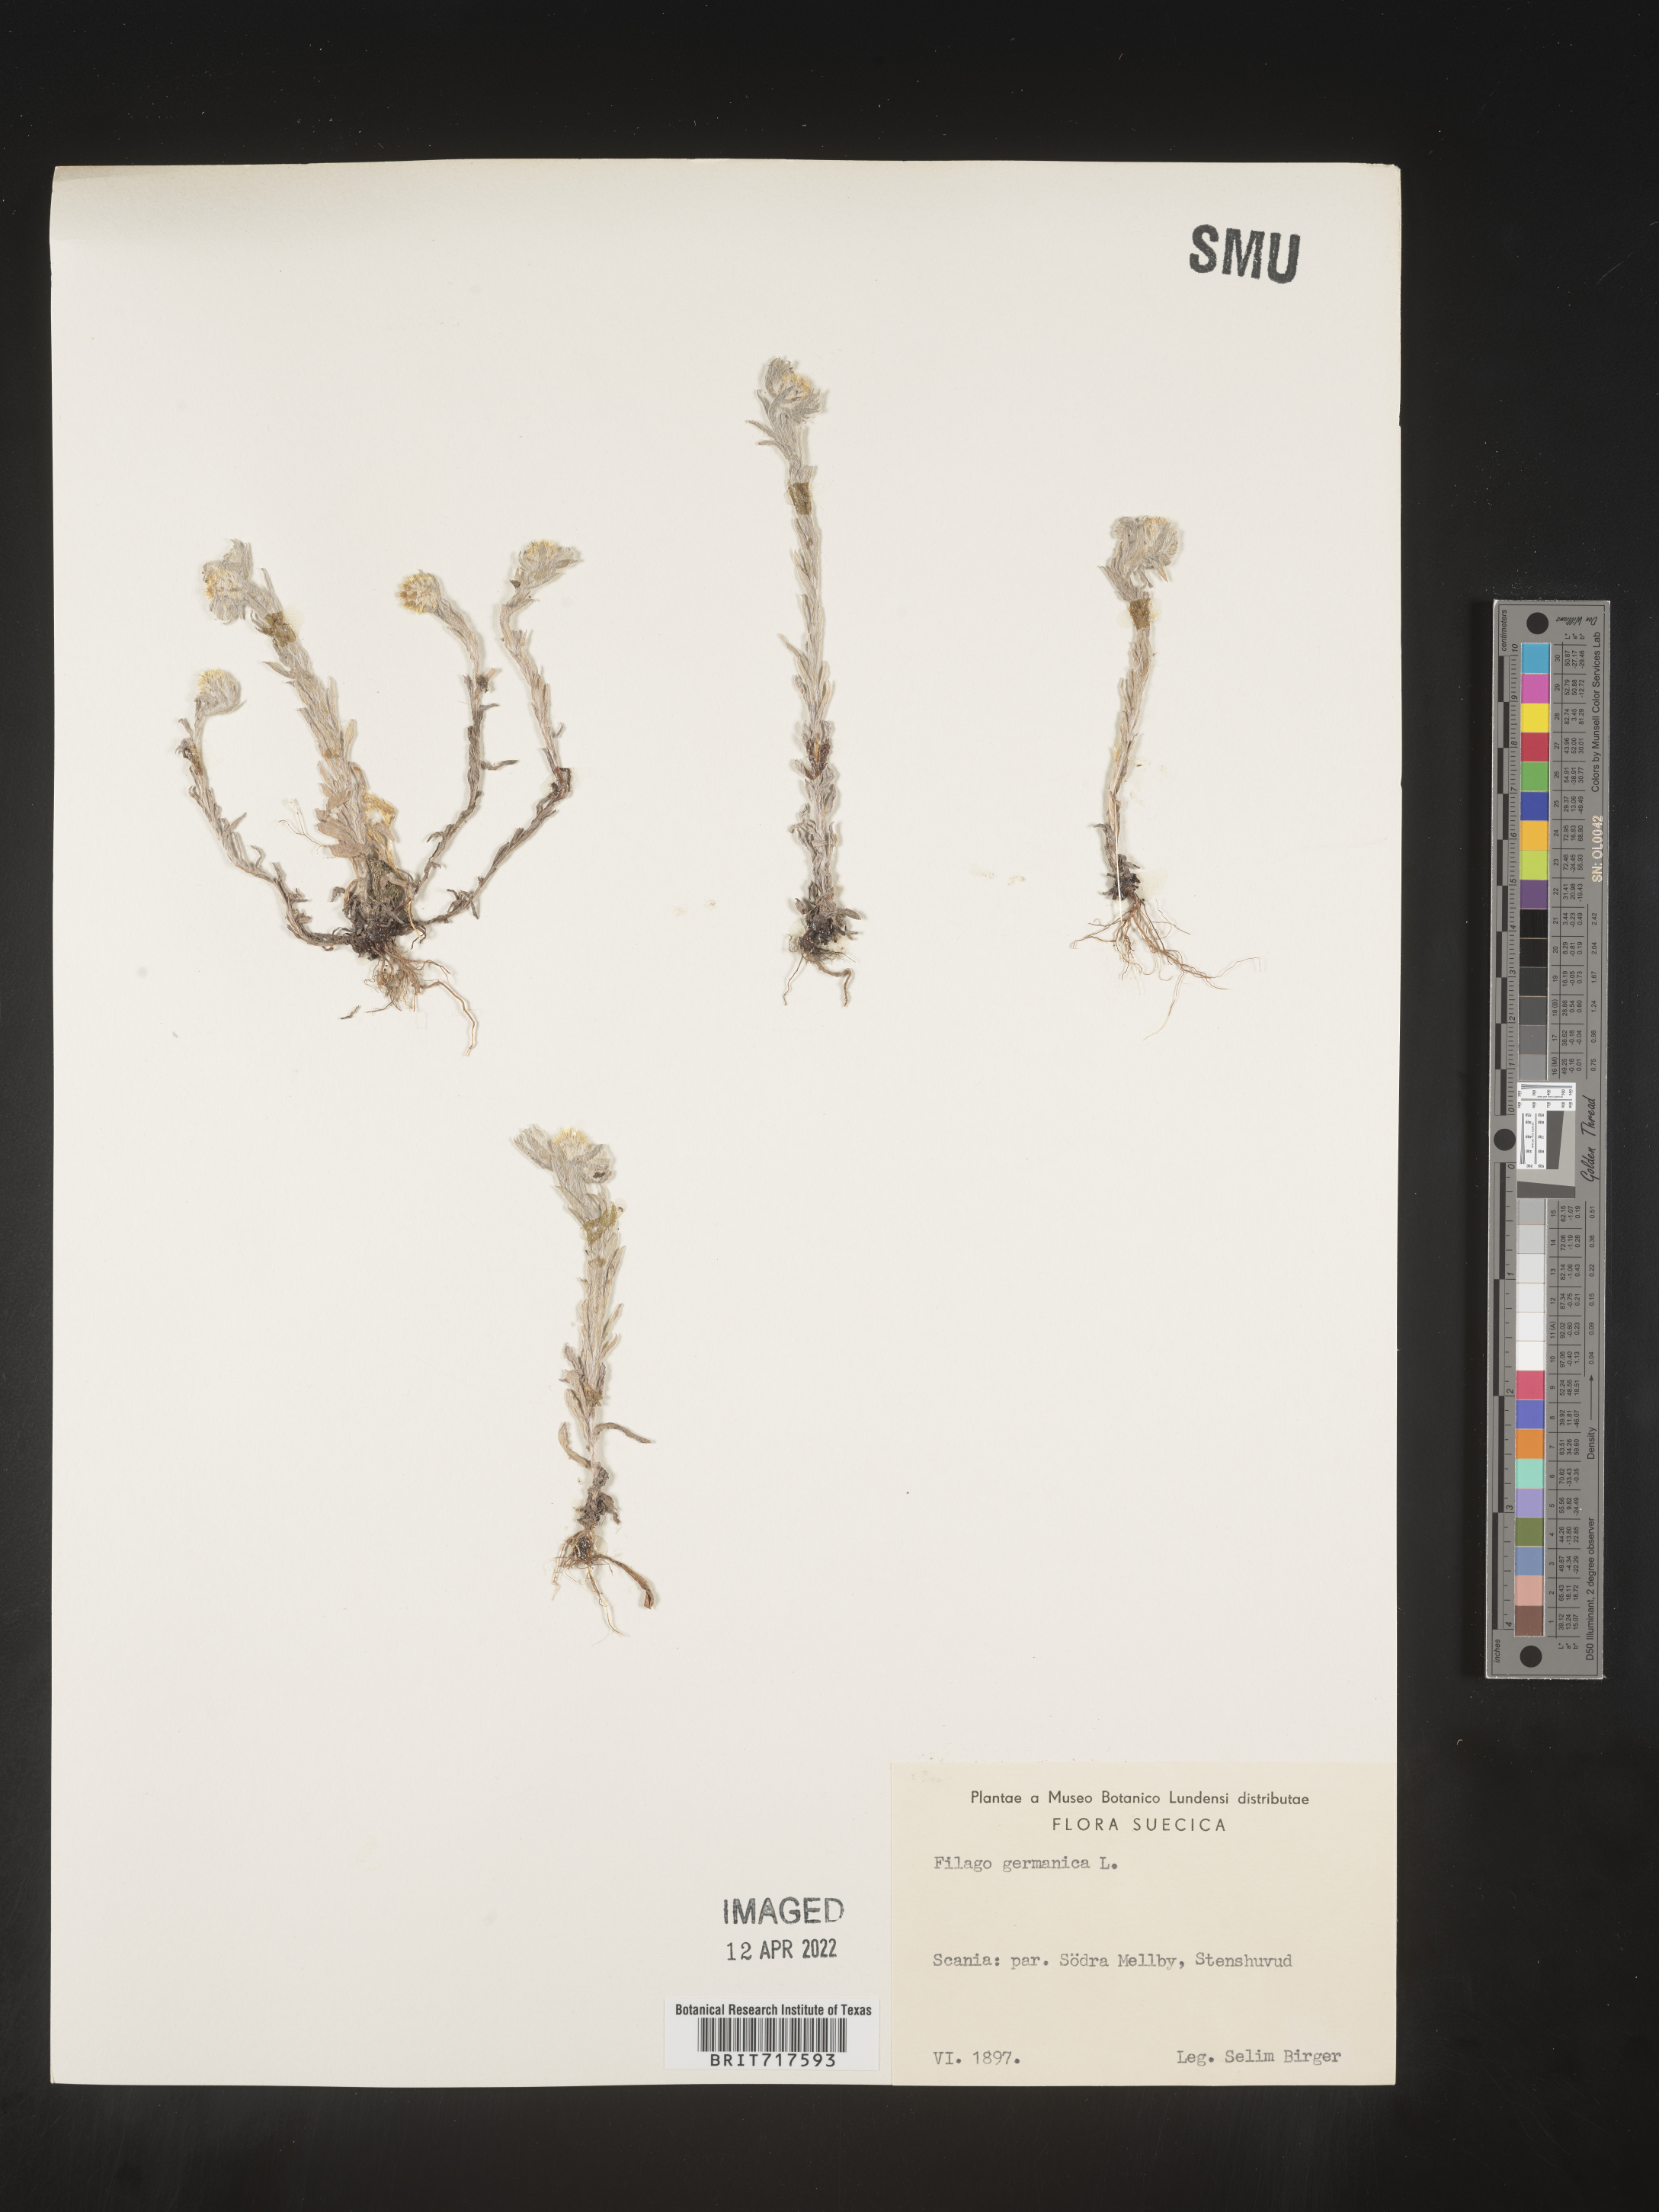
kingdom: Plantae
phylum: Tracheophyta
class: Magnoliopsida
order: Asterales
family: Asteraceae
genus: Filago
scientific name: Filago
